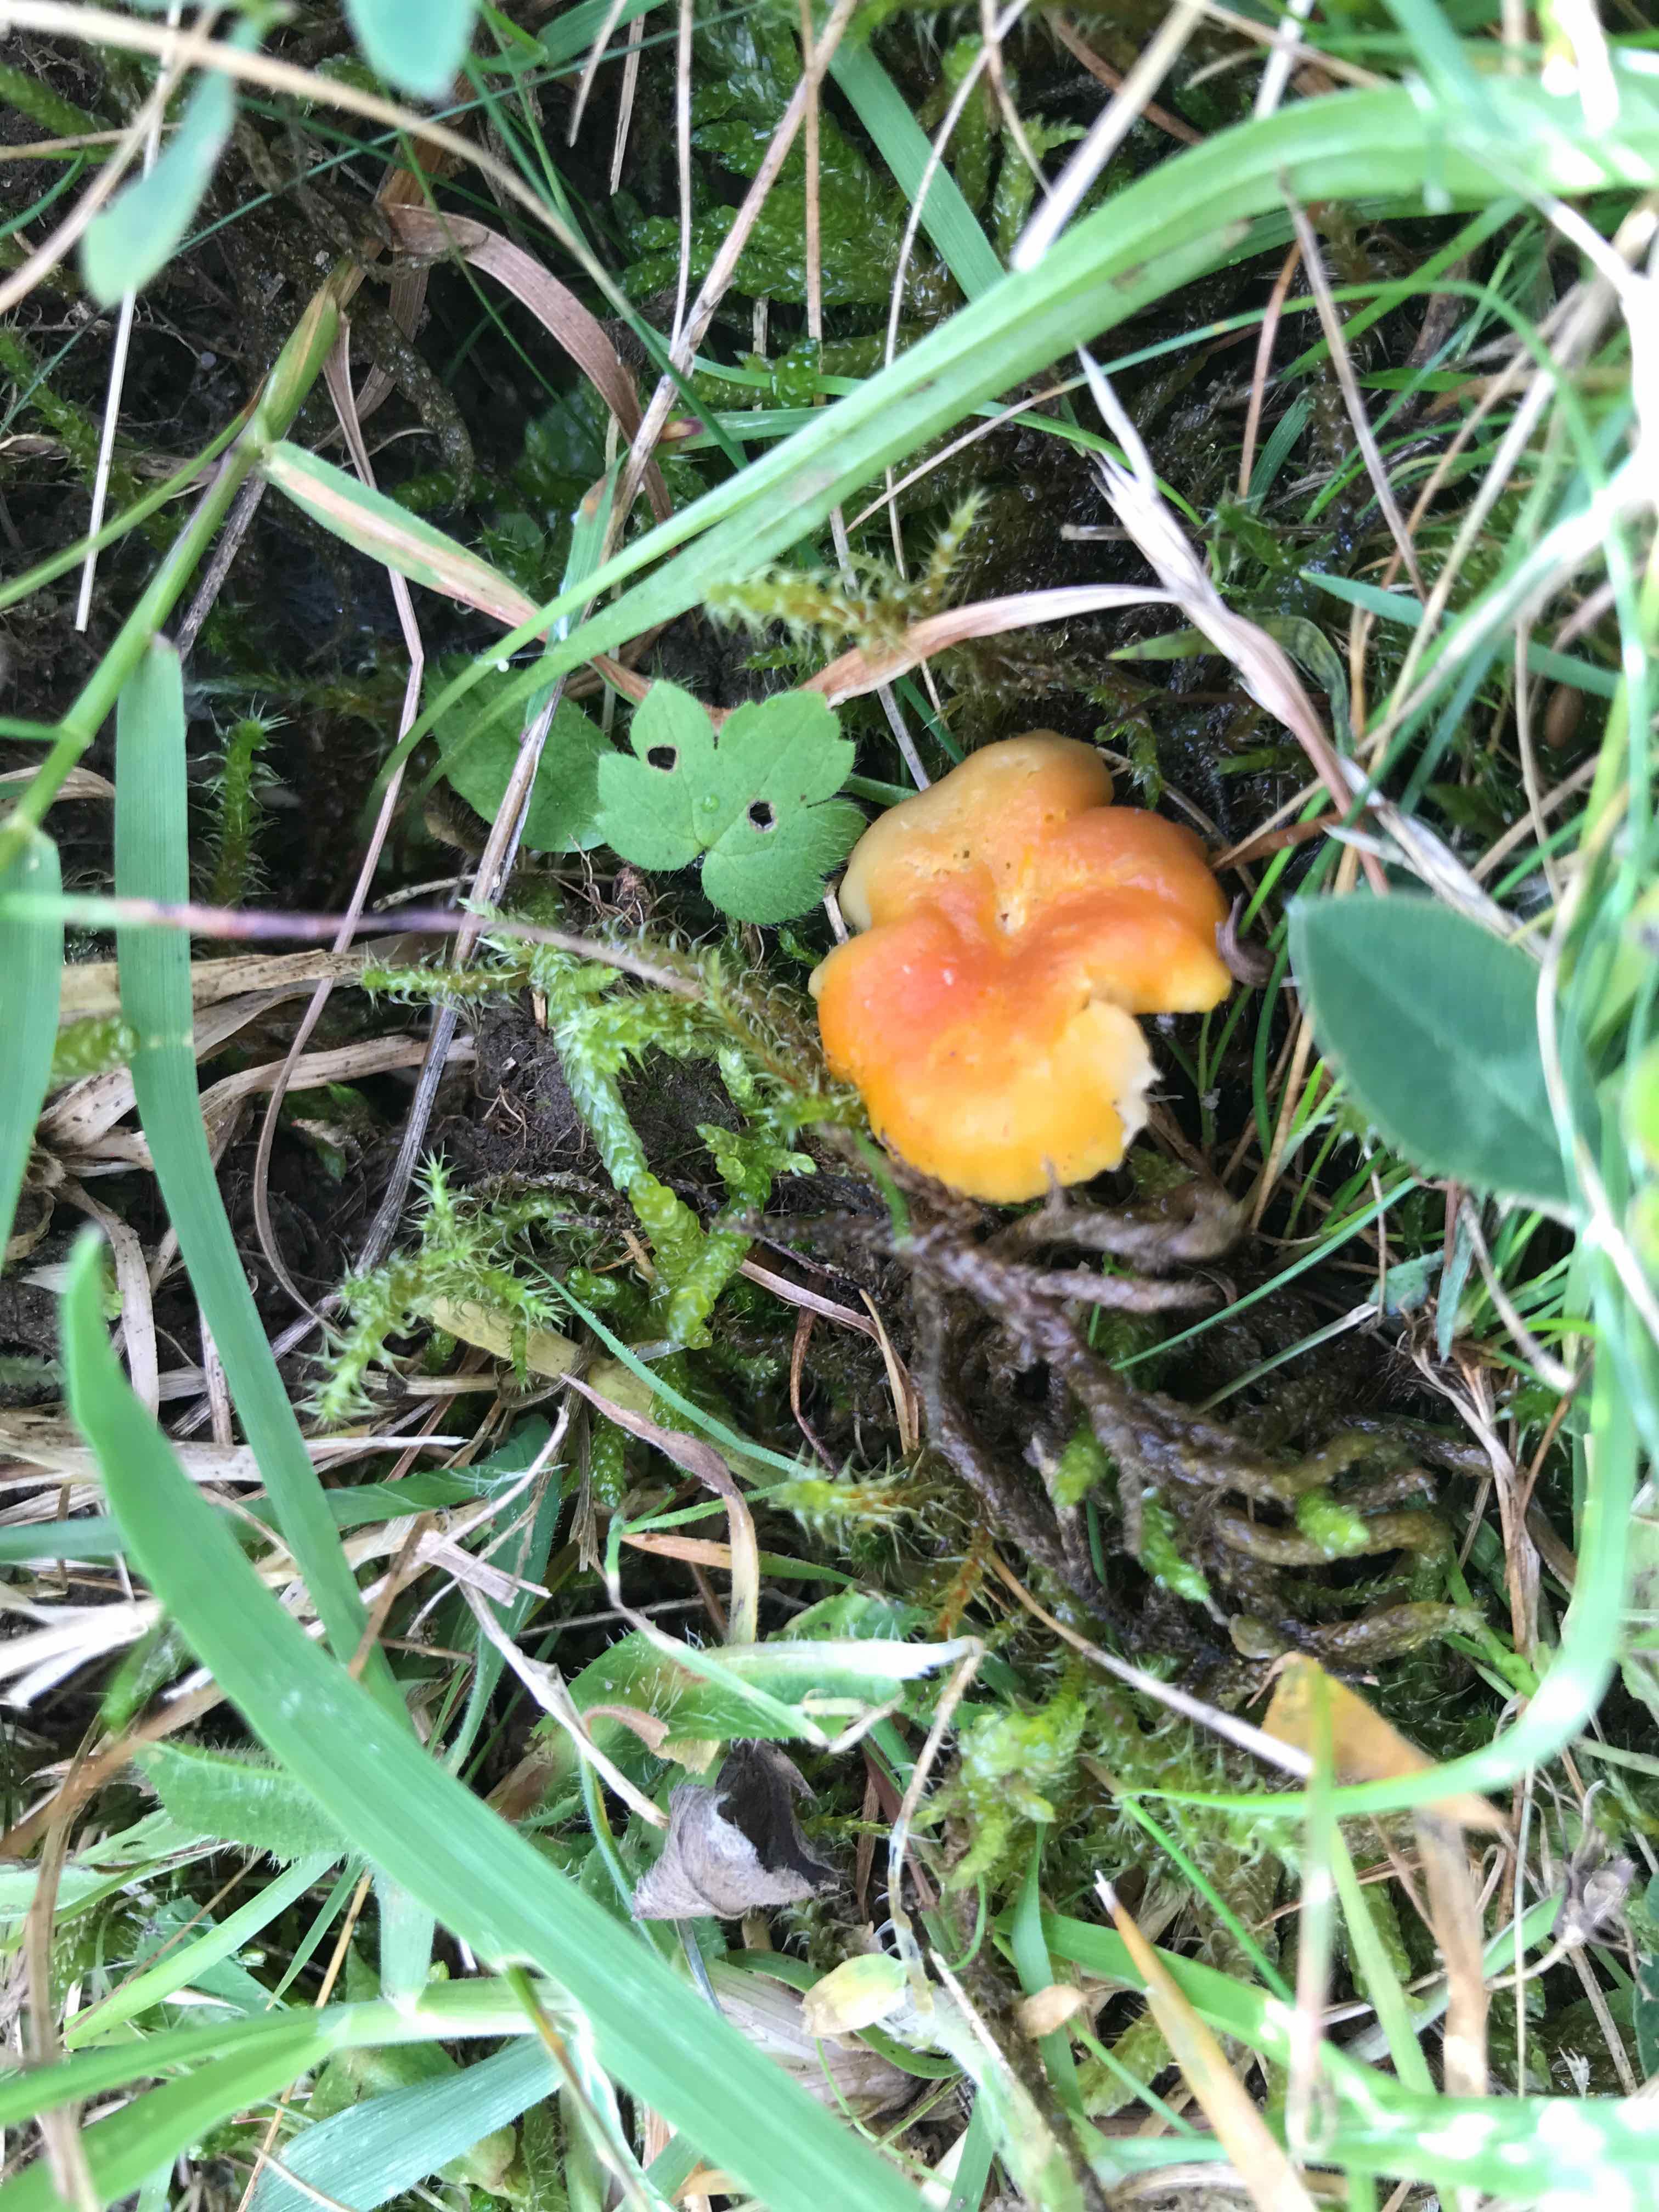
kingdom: Fungi
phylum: Basidiomycota
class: Agaricomycetes
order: Agaricales
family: Hygrophoraceae
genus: Hygrocybe
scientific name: Hygrocybe cantharellus
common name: kantarel-vokshat
